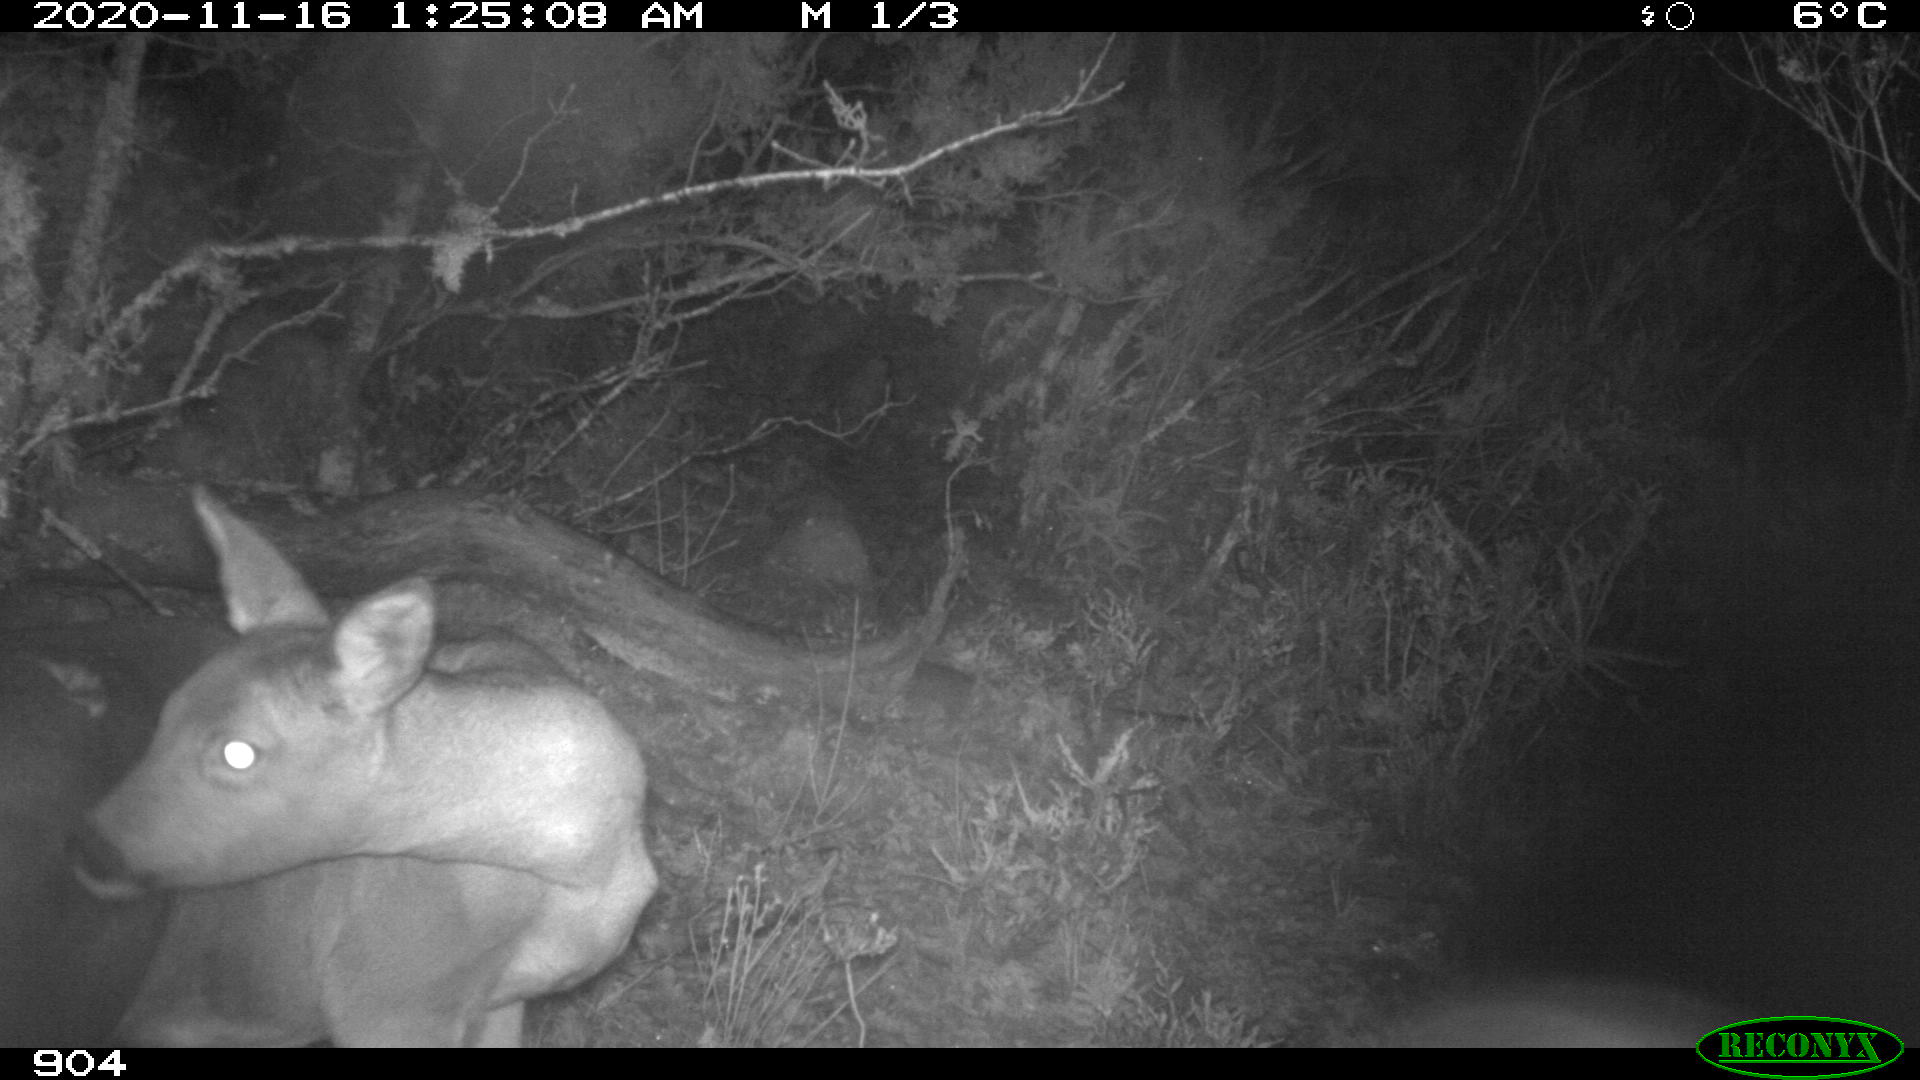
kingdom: Animalia
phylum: Chordata
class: Mammalia
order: Artiodactyla
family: Cervidae
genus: Capreolus
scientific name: Capreolus capreolus
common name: Western roe deer
